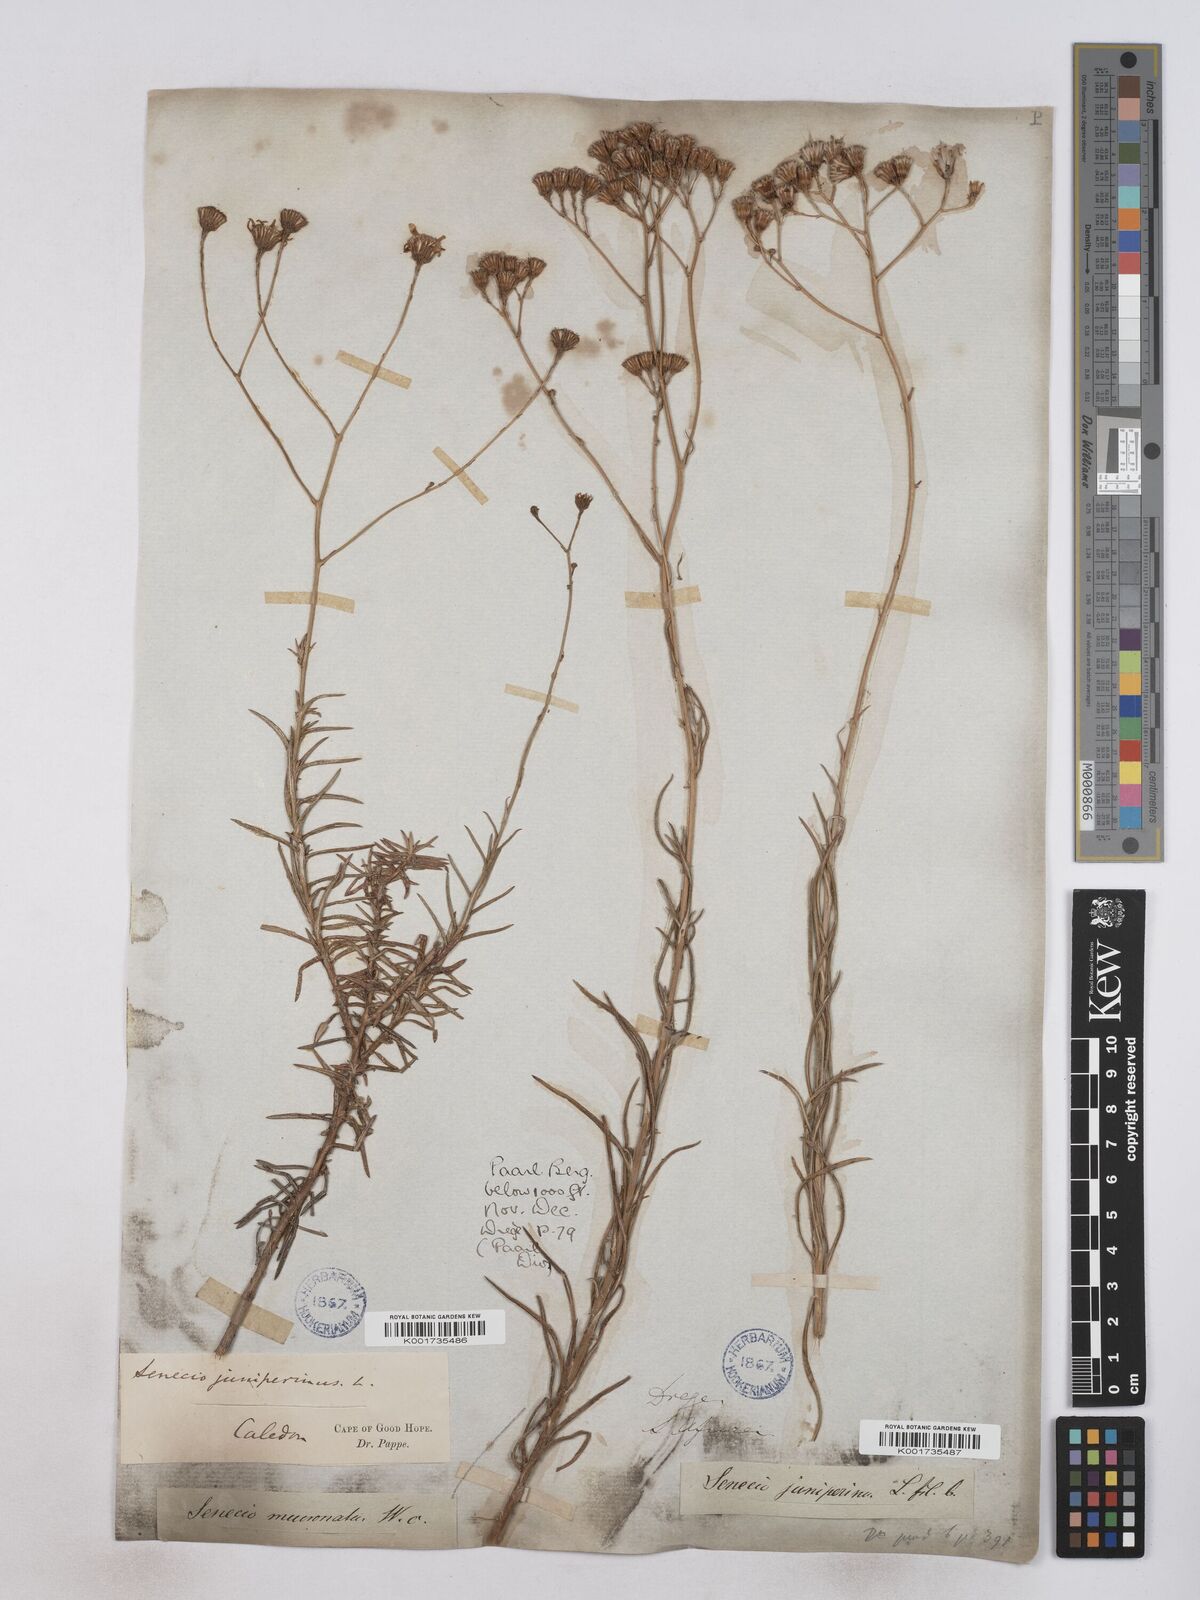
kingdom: Plantae
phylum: Tracheophyta
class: Magnoliopsida
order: Asterales
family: Asteraceae
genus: Senecio
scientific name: Senecio juniperinus
